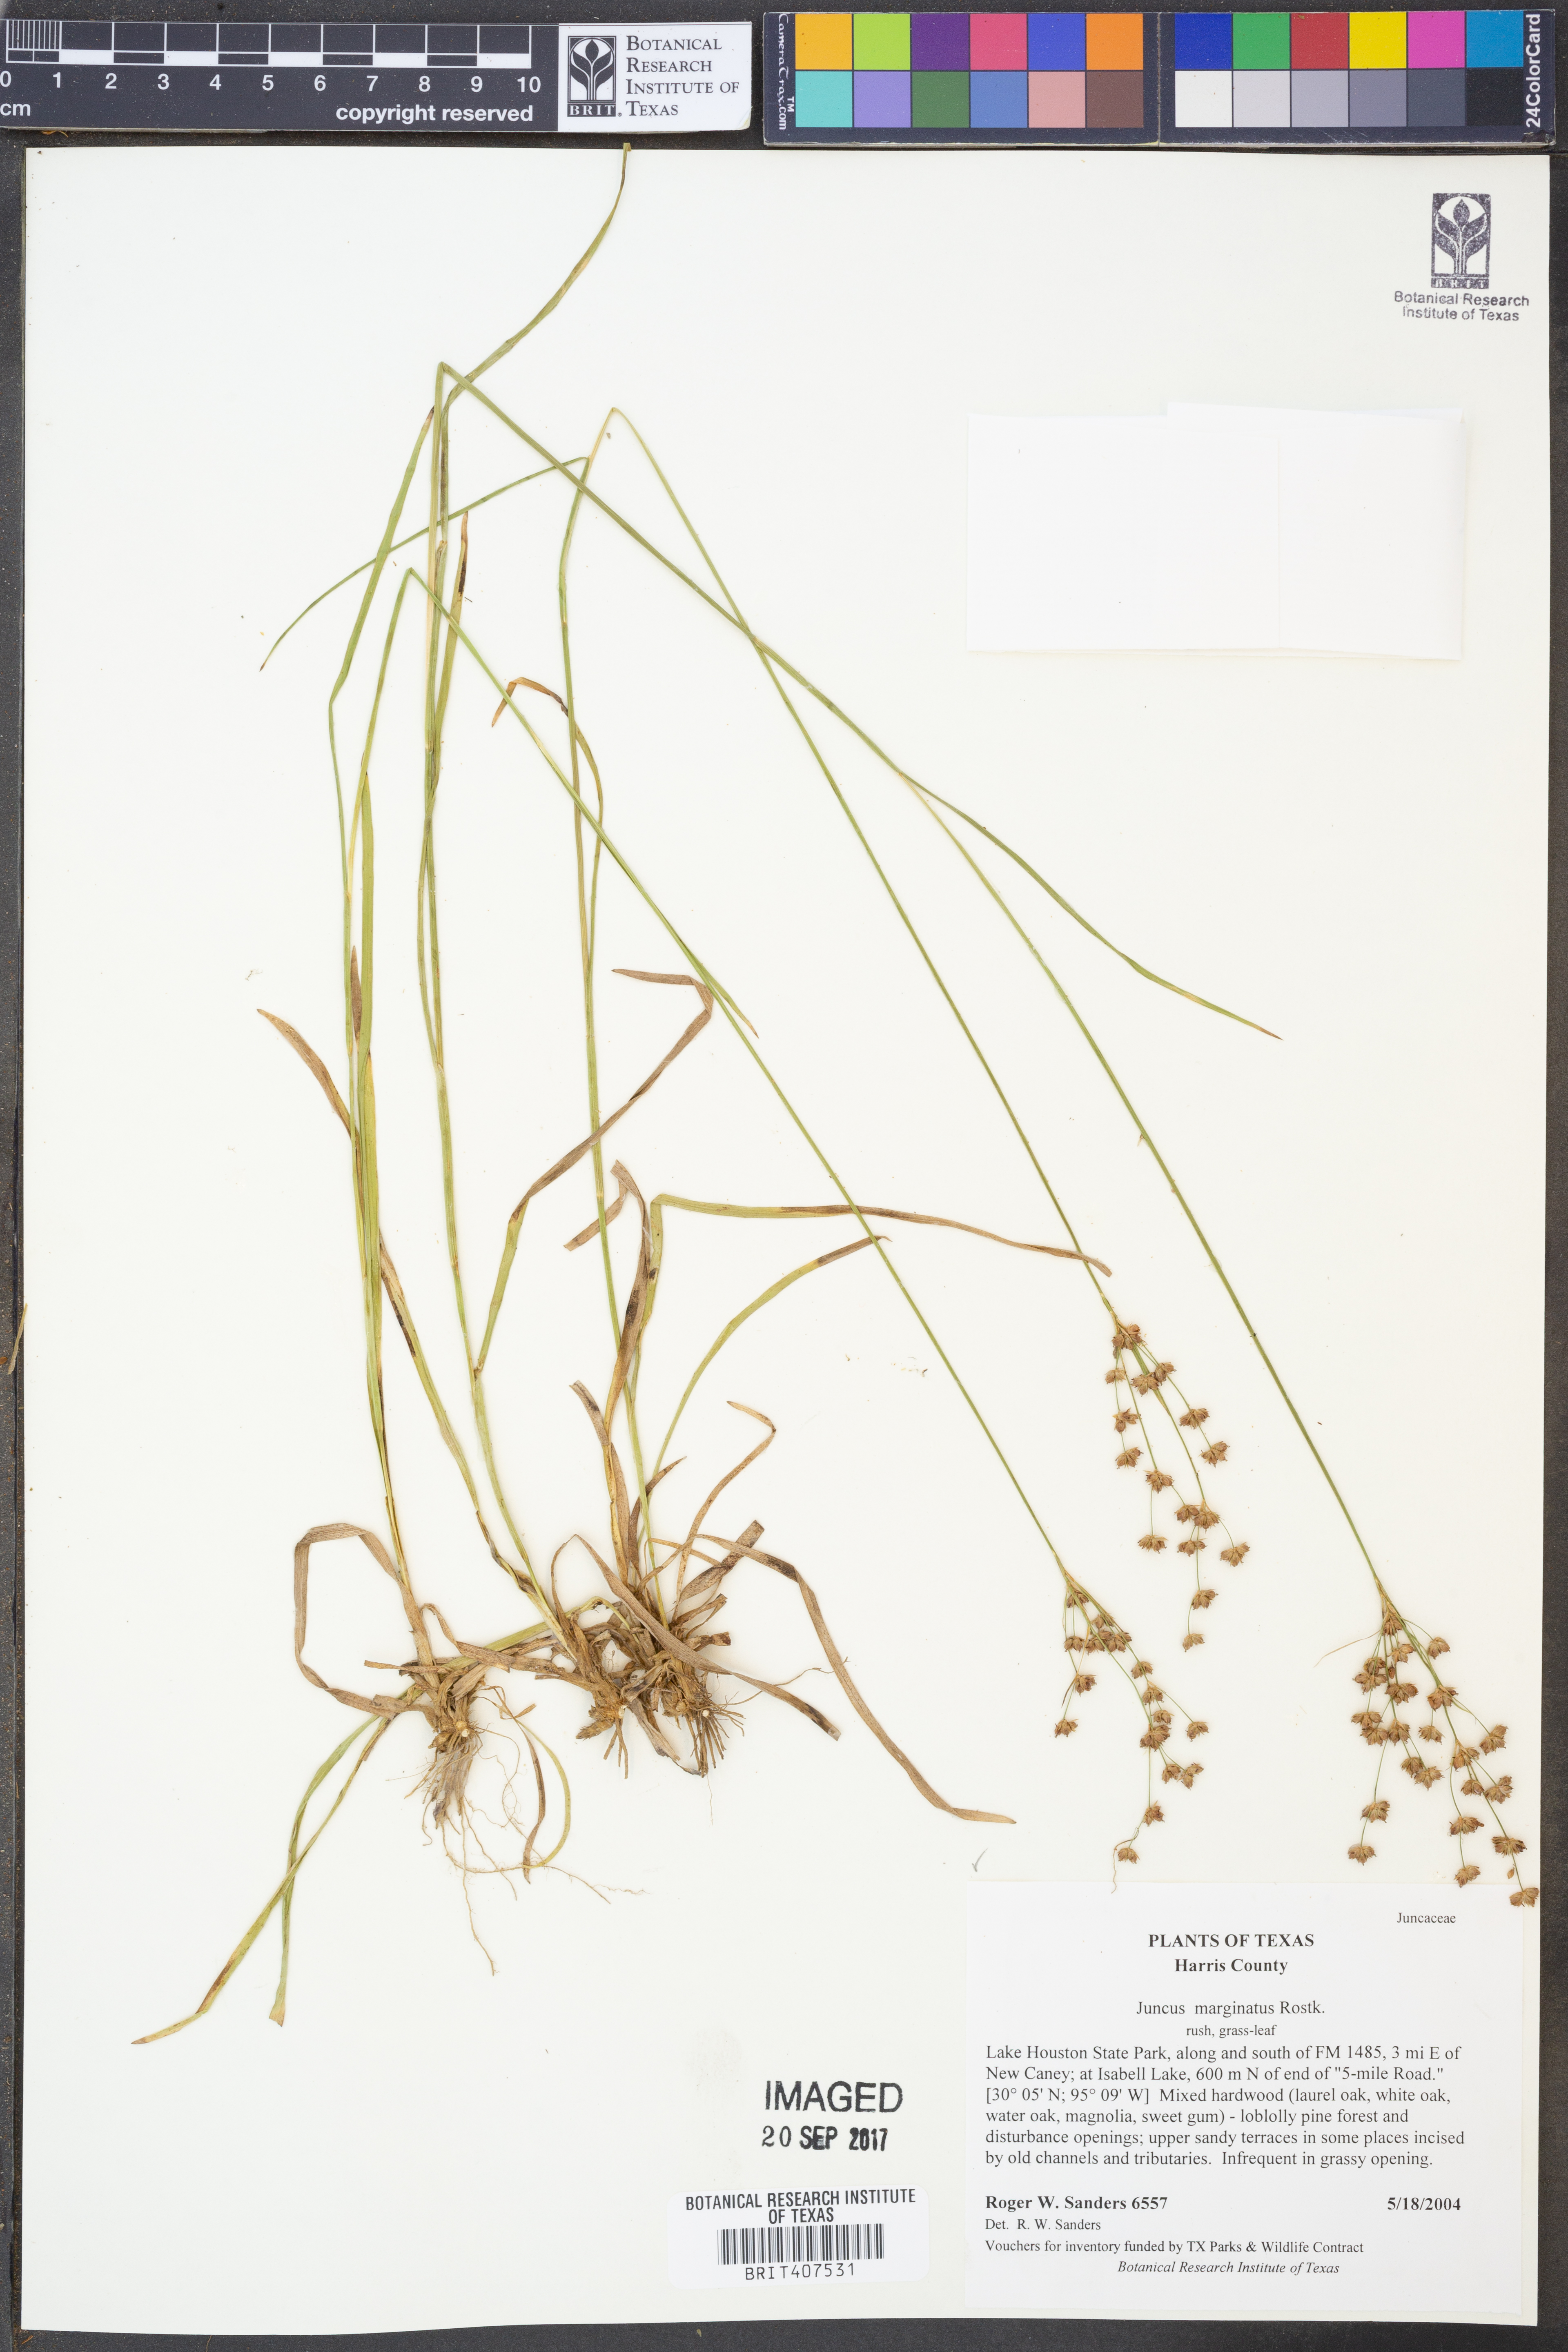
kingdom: Plantae
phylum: Tracheophyta
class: Liliopsida
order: Poales
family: Juncaceae
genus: Juncus
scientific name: Juncus marginatus
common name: Grass-leaf rush
